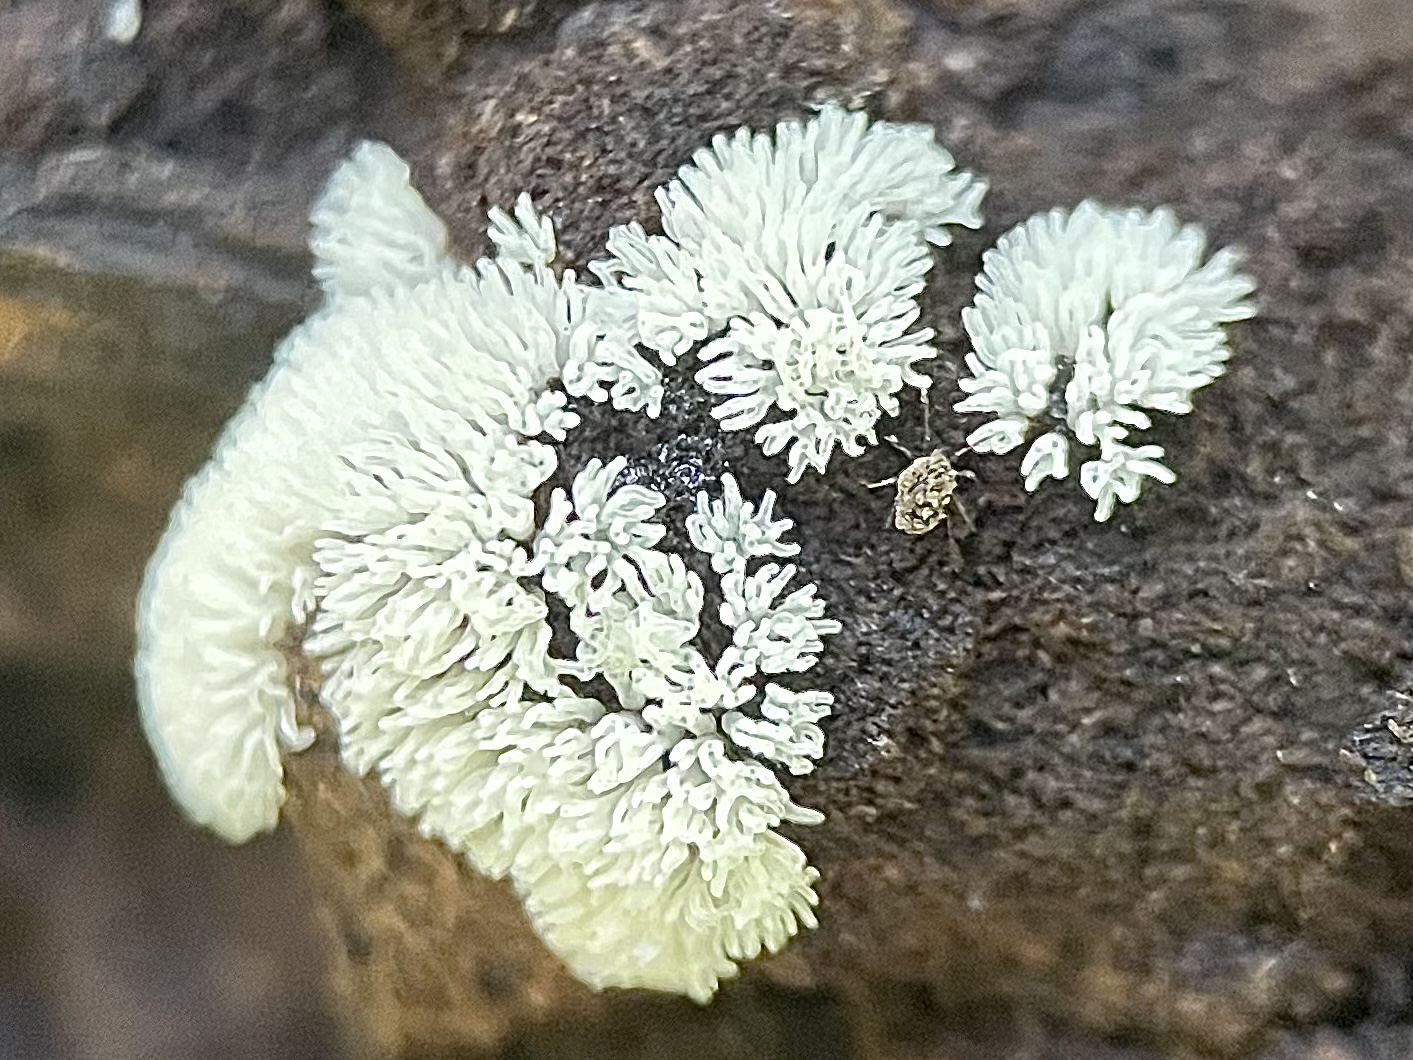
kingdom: Protozoa
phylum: Mycetozoa
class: Protosteliomycetes
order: Ceratiomyxales
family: Ceratiomyxaceae
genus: Ceratiomyxa
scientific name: Ceratiomyxa fruticulosa
